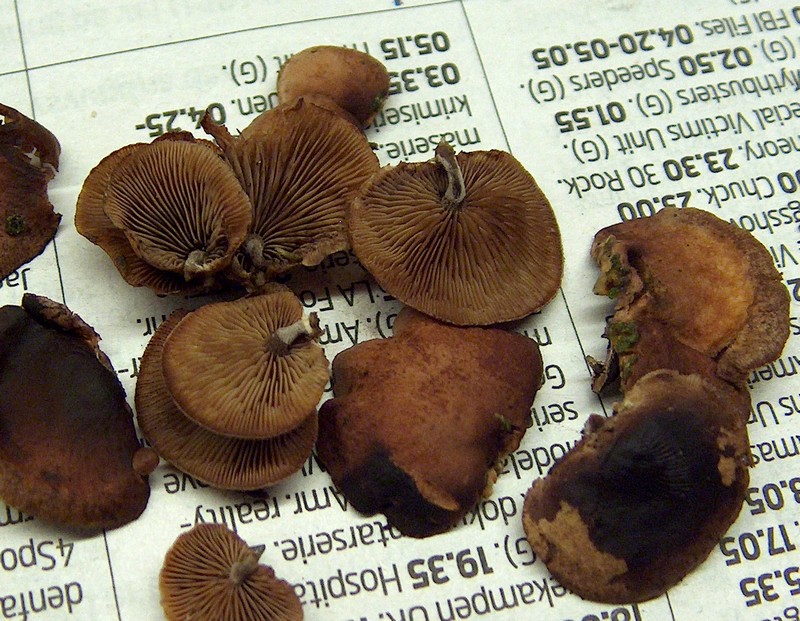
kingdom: Fungi
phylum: Basidiomycota
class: Agaricomycetes
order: Agaricales
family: Strophariaceae
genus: Deconica
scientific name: Deconica horizontalis
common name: ved-stråhat
